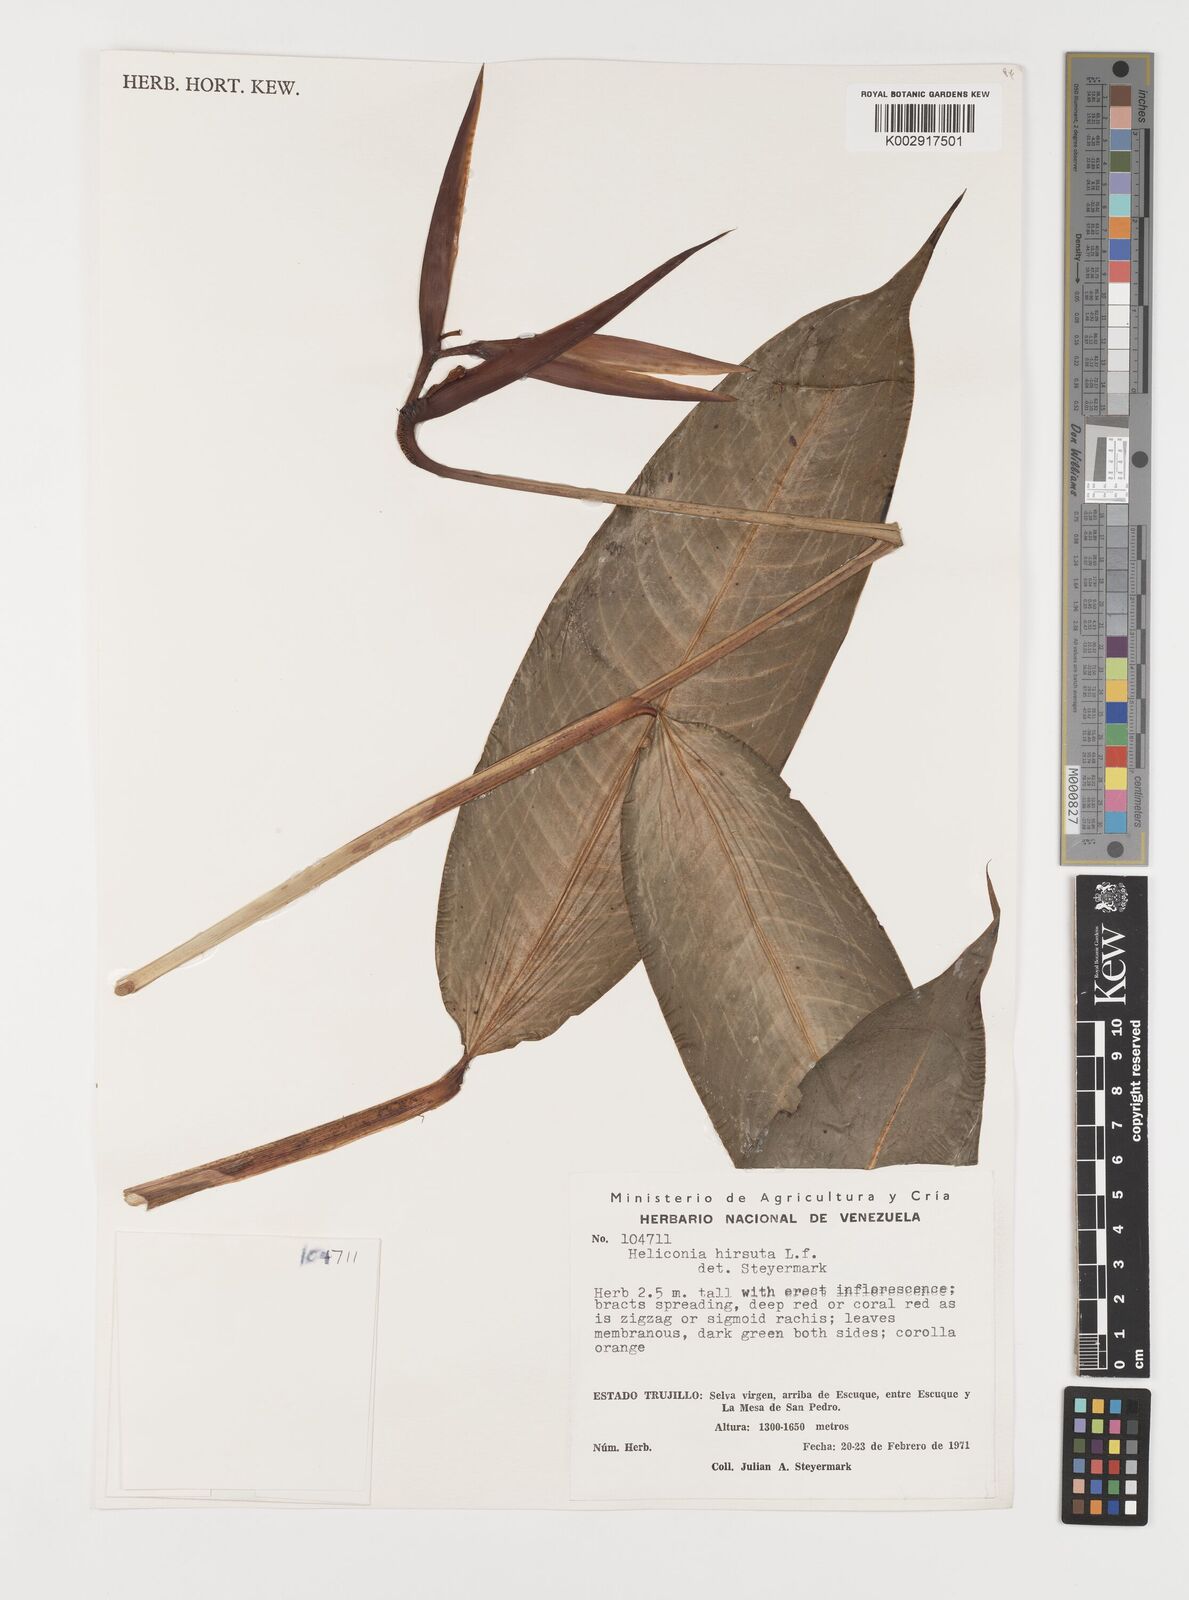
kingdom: Plantae
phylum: Tracheophyta
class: Liliopsida
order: Zingiberales
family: Heliconiaceae
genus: Heliconia
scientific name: Heliconia hirsuta
